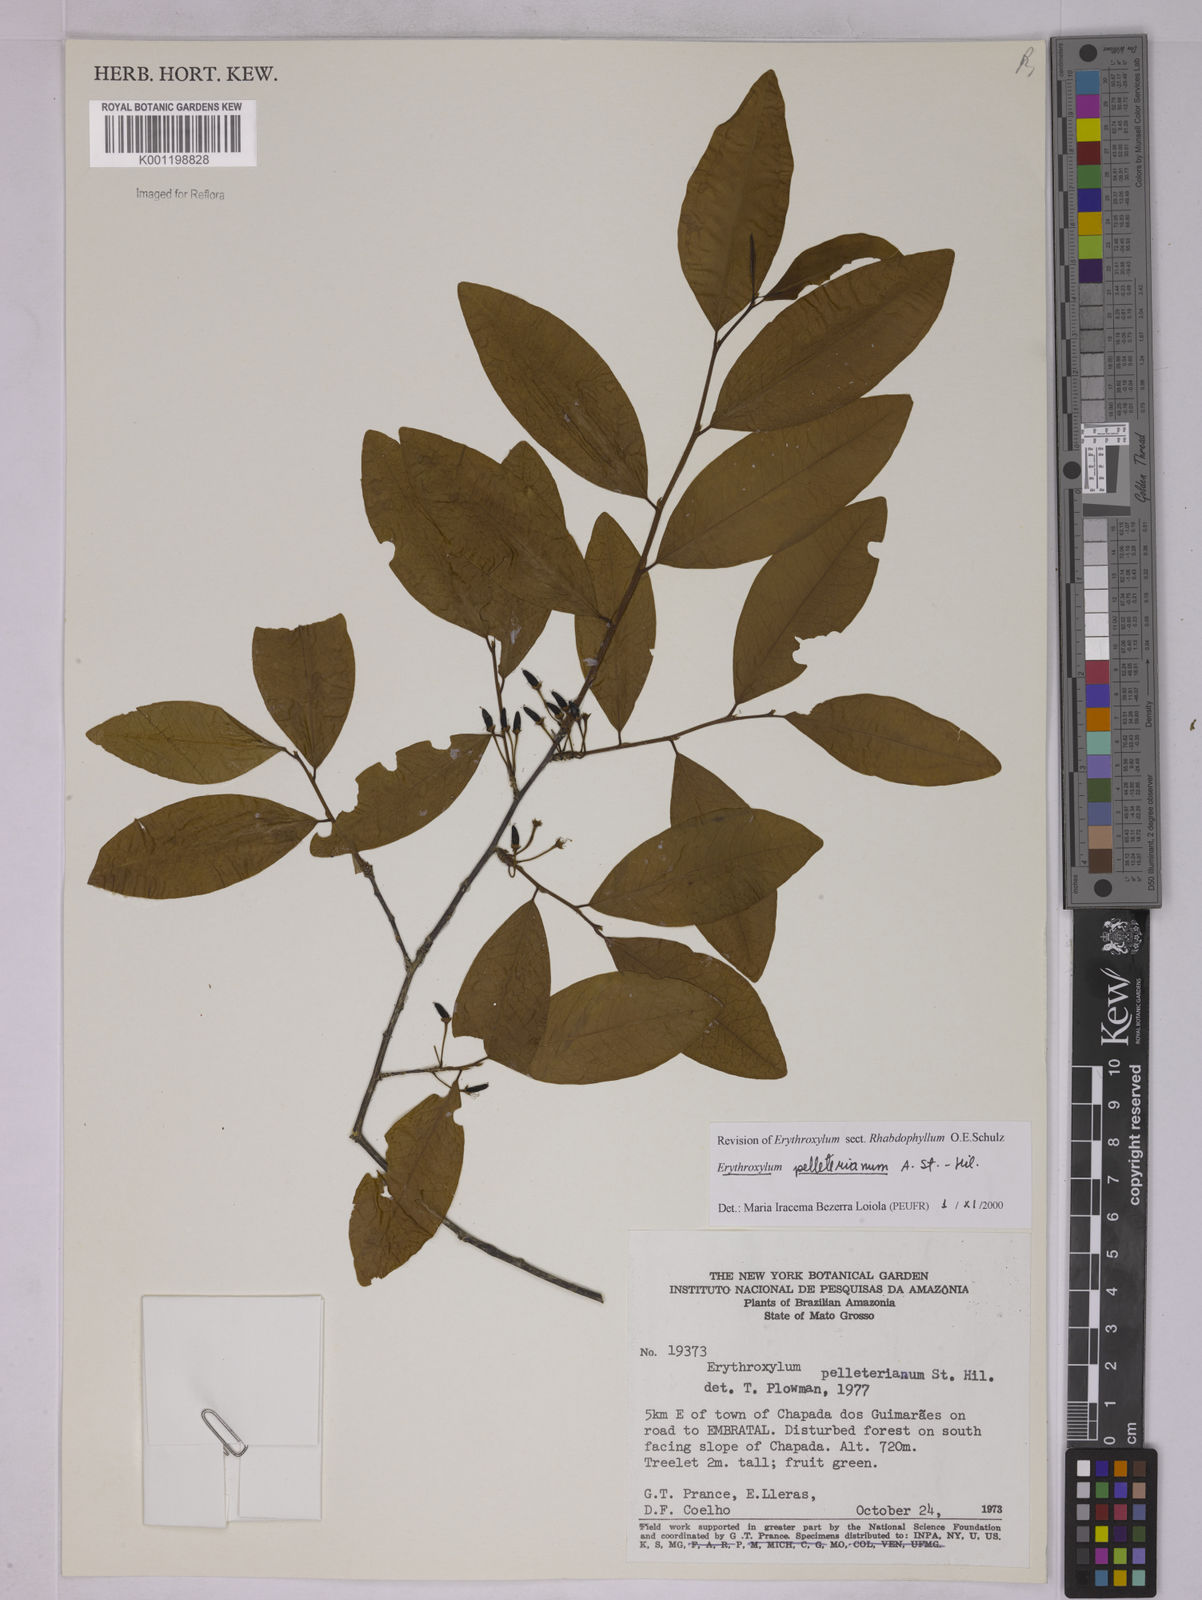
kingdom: Plantae
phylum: Tracheophyta
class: Magnoliopsida
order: Malpighiales
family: Erythroxylaceae
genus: Erythroxylum
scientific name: Erythroxylum pelleterianum
